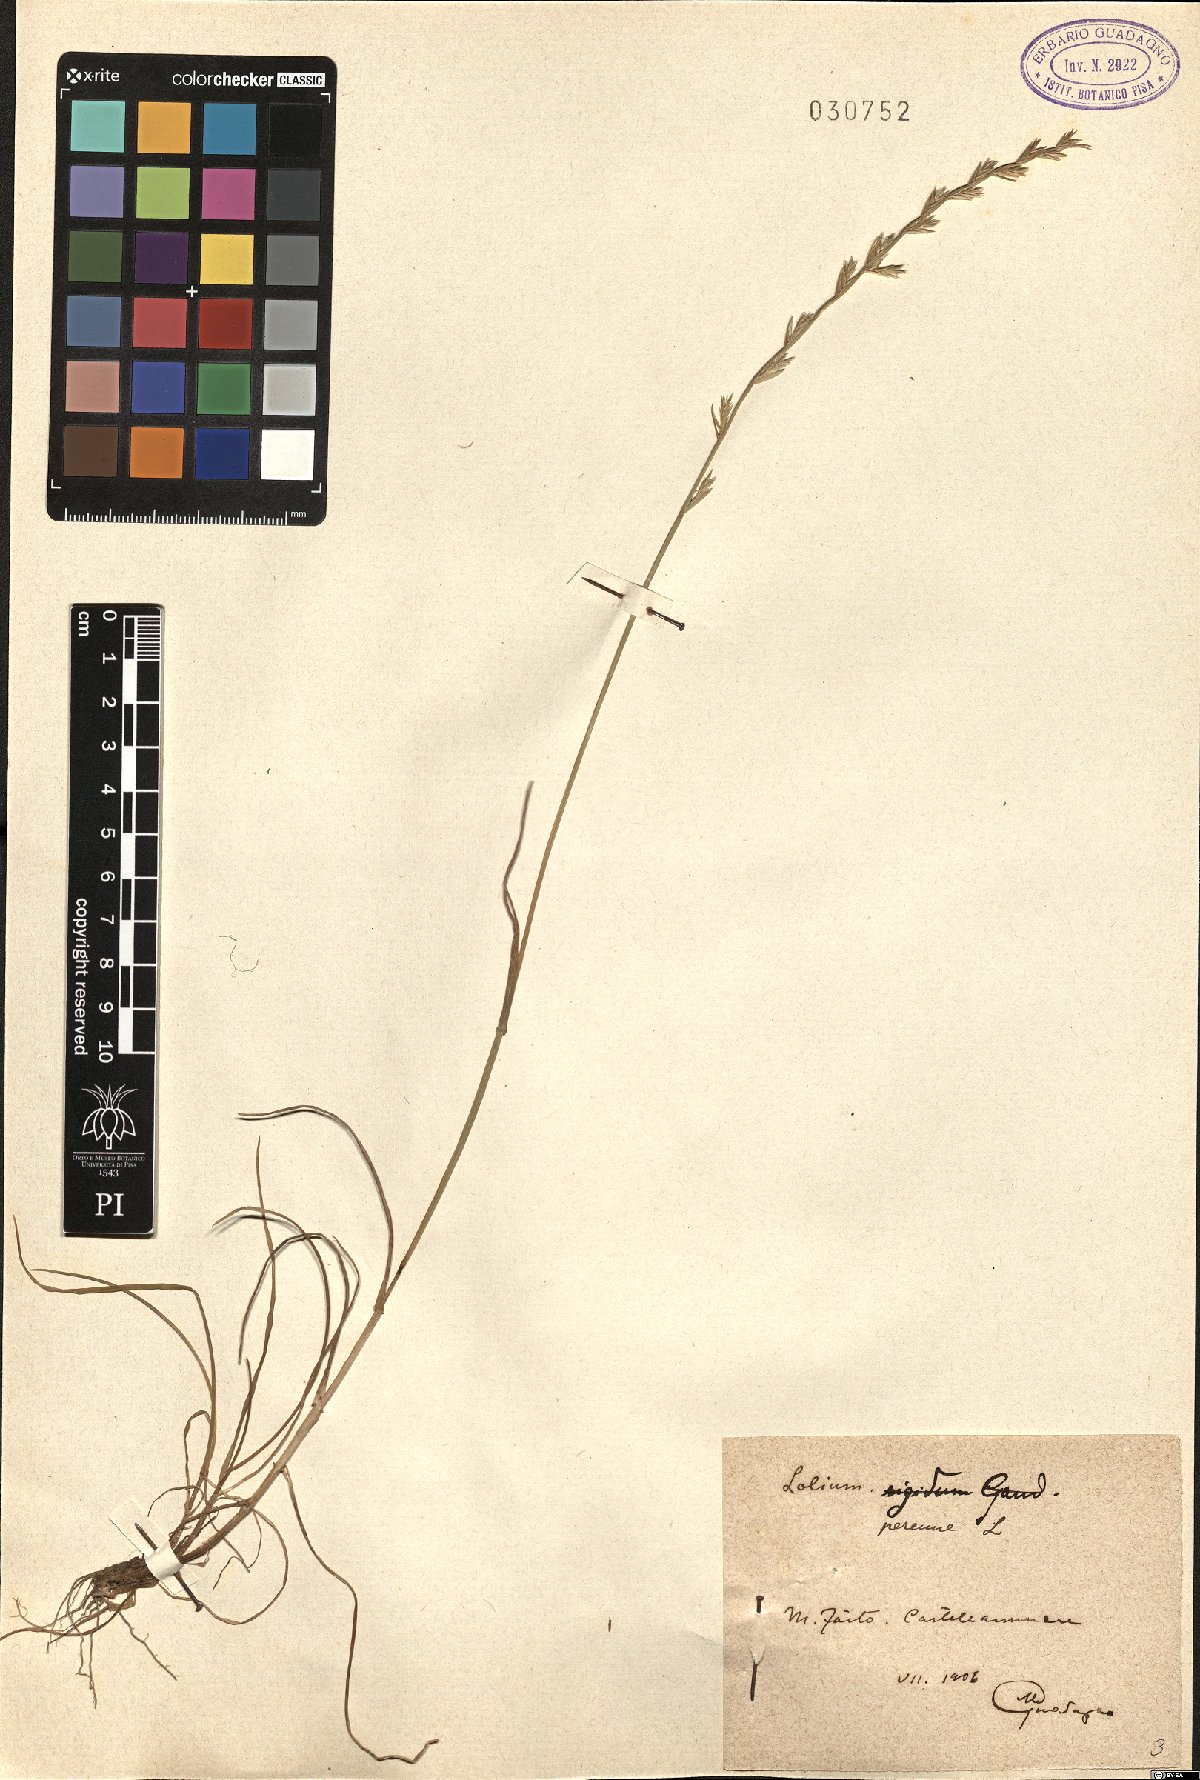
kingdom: Plantae
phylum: Tracheophyta
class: Liliopsida
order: Poales
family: Poaceae
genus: Lolium
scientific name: Lolium perenne
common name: Perennial ryegrass
